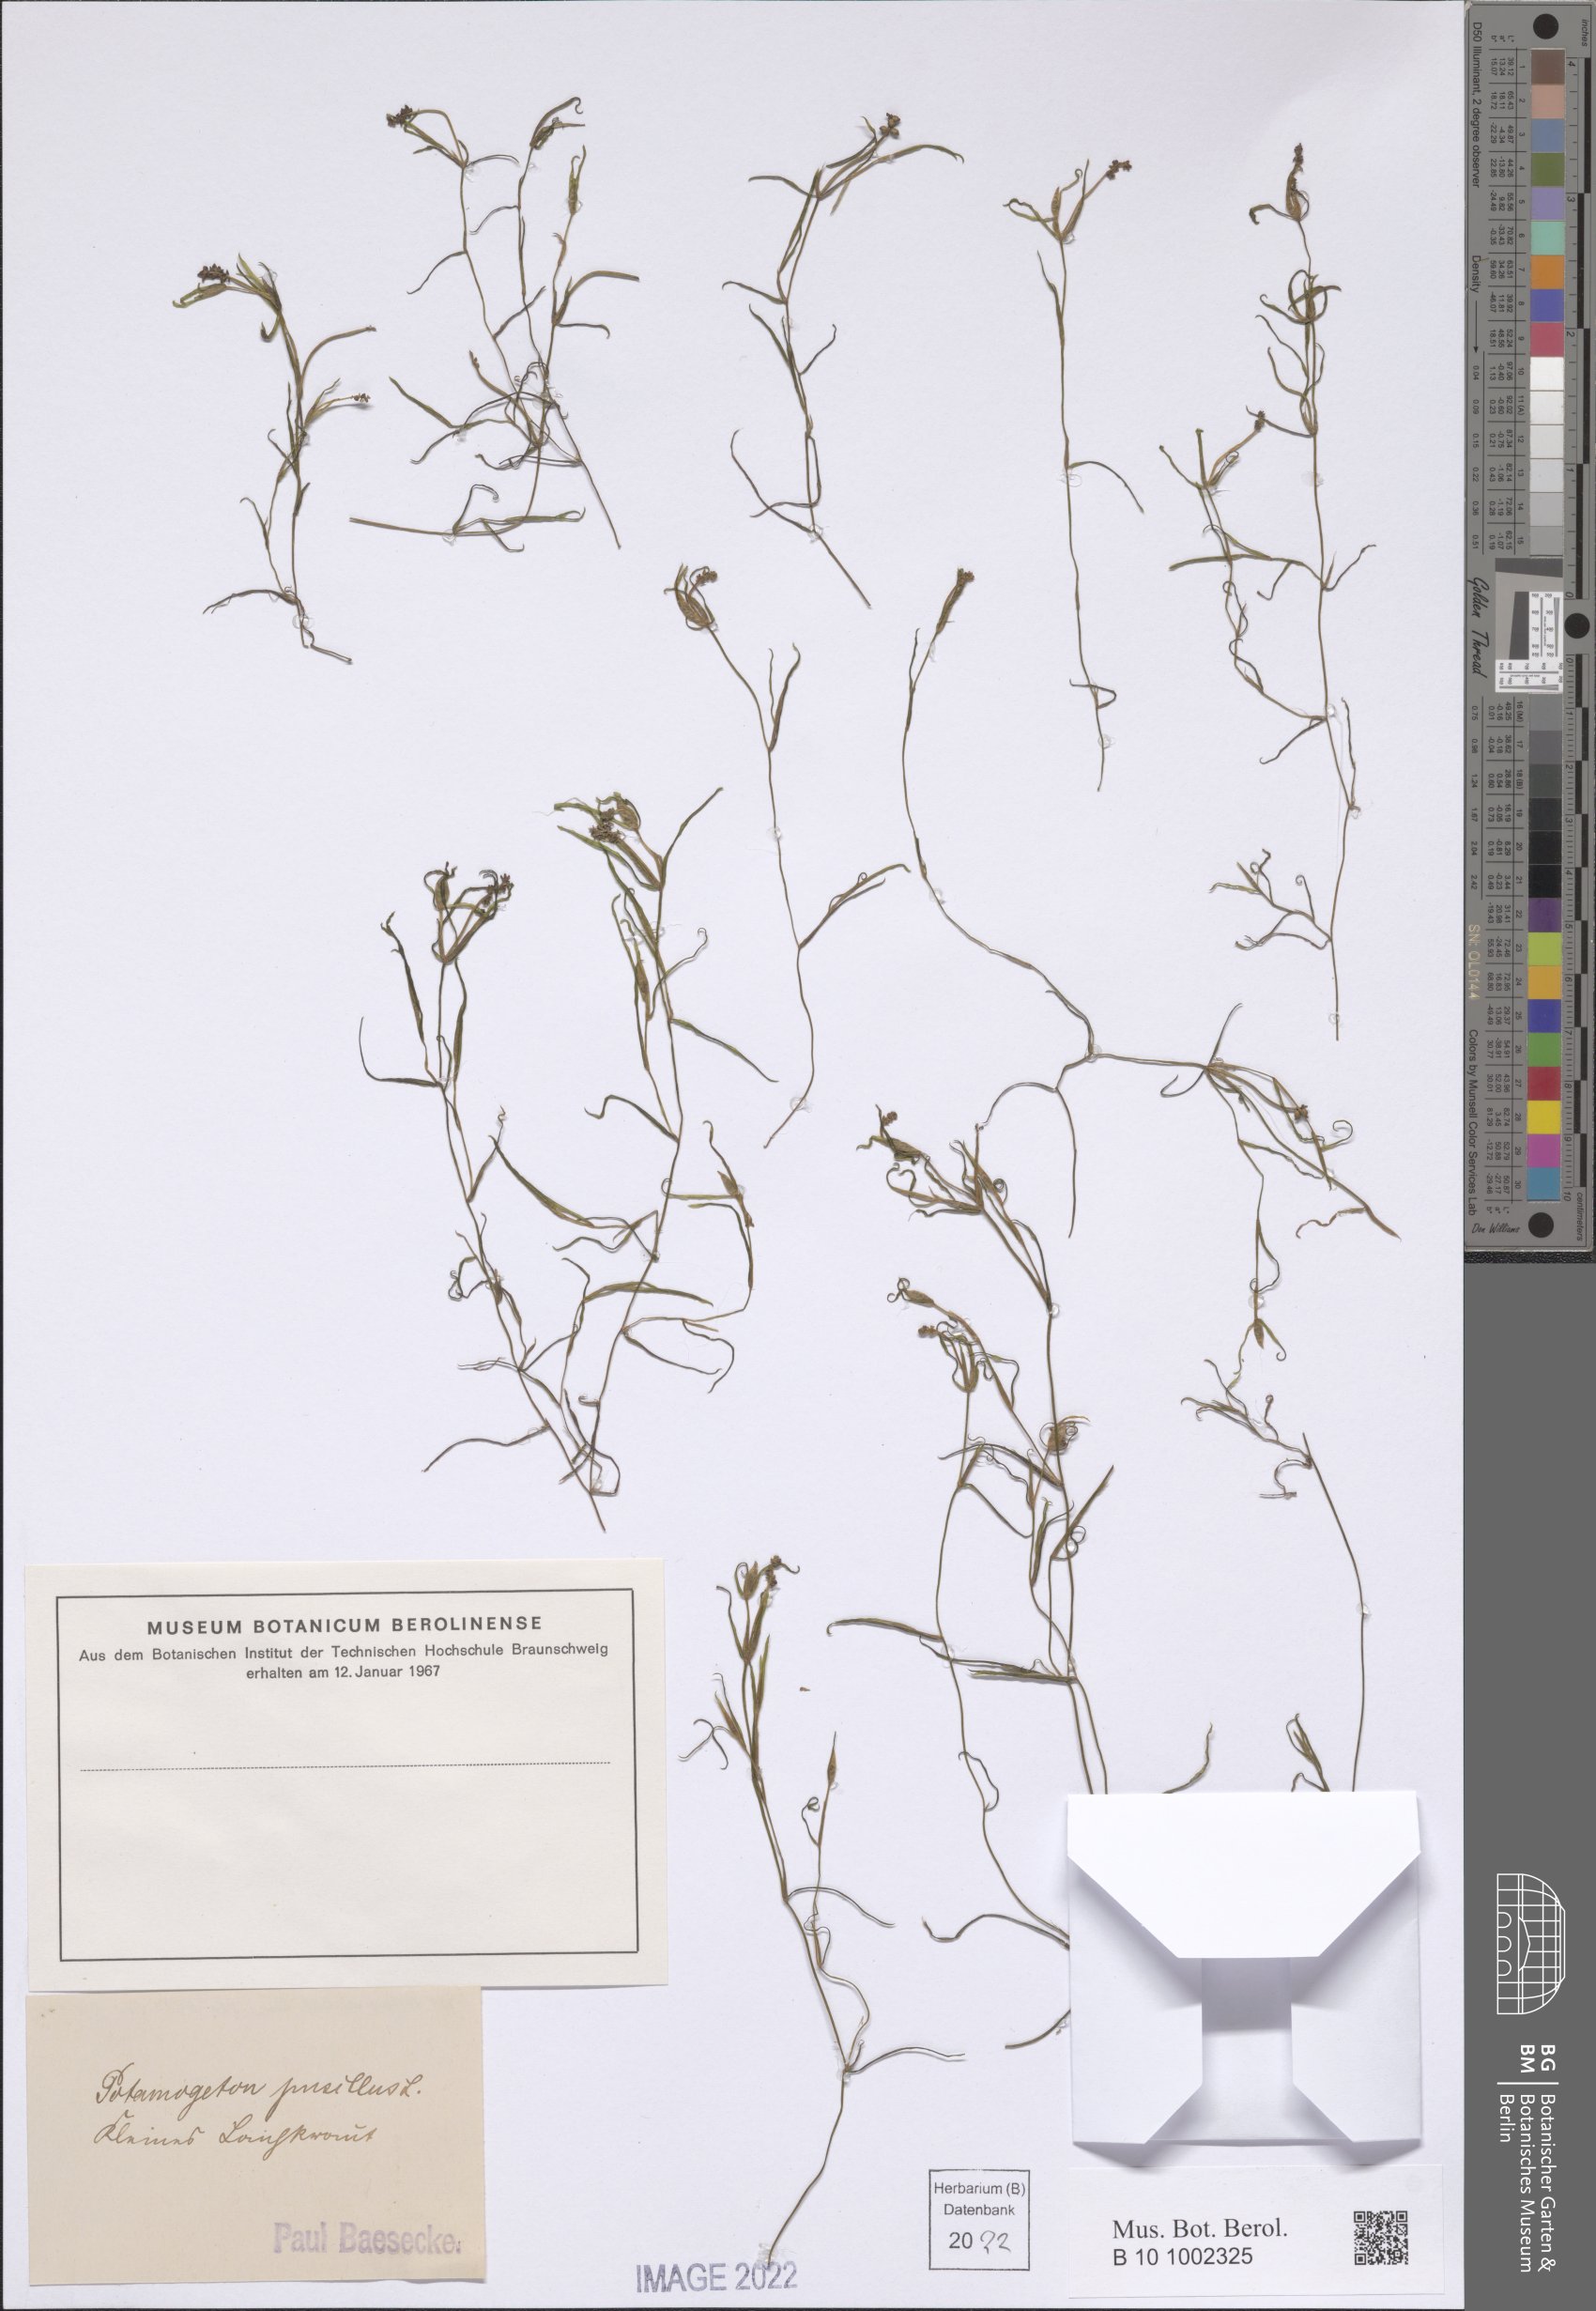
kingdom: Plantae
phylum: Tracheophyta
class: Liliopsida
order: Alismatales
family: Potamogetonaceae
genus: Potamogeton
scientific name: Potamogeton pusillus
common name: Lesser pondweed
